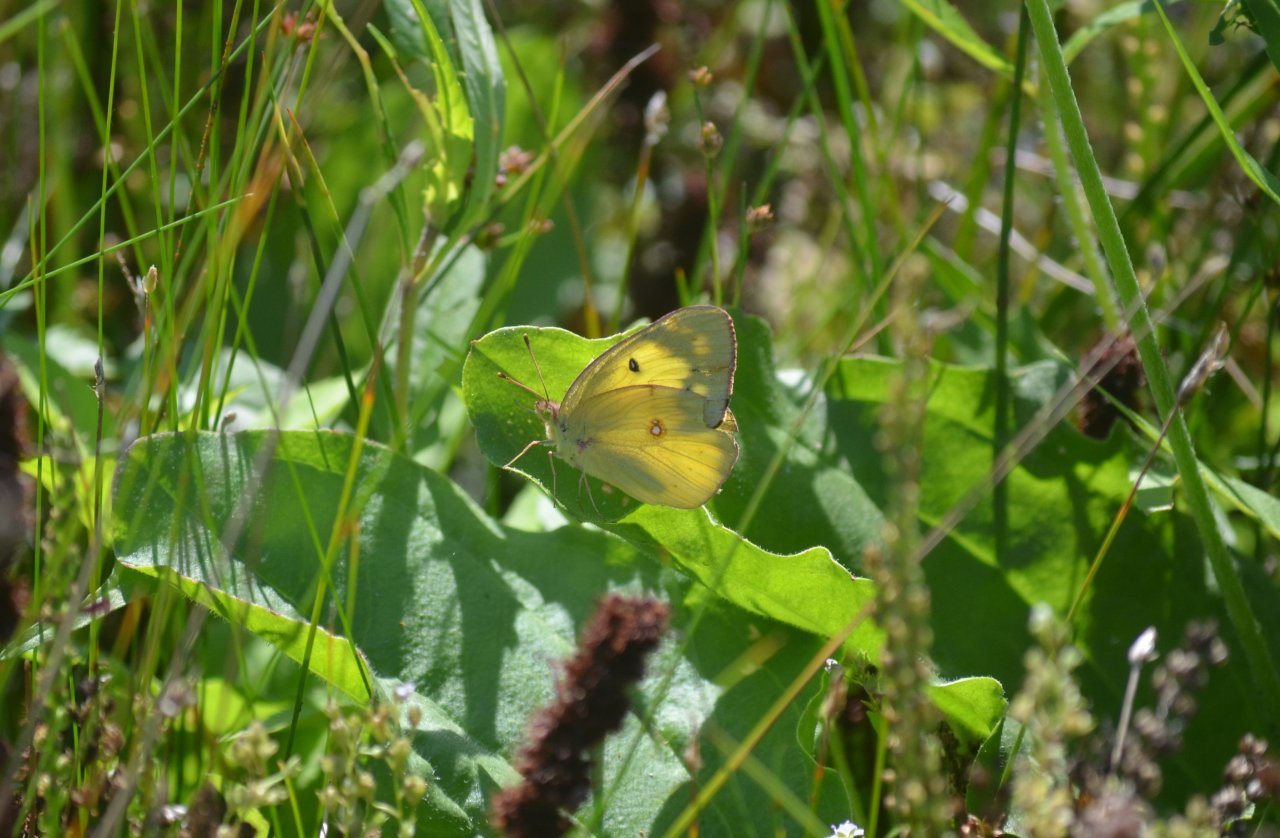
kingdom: Animalia
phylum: Arthropoda
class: Insecta
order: Lepidoptera
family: Pieridae
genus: Colias
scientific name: Colias philodice
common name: Clouded Sulphur
